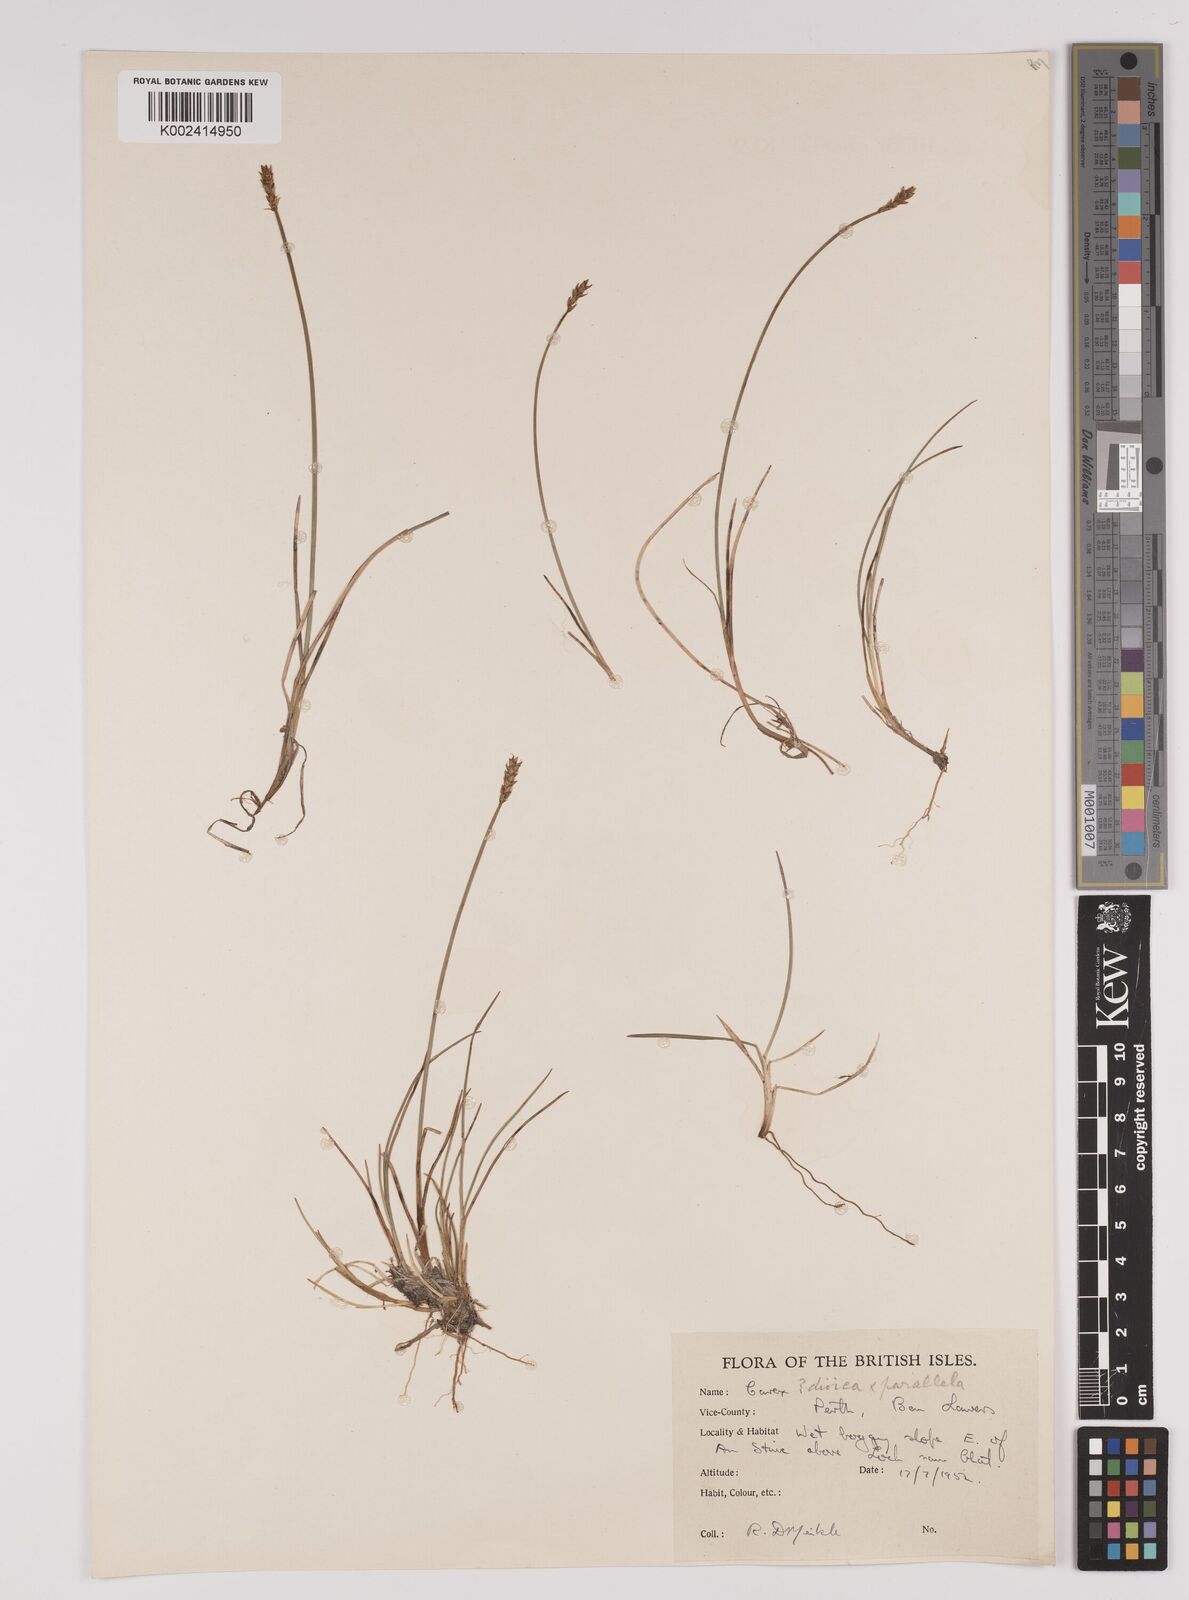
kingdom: Plantae
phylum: Tracheophyta
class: Liliopsida
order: Poales
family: Cyperaceae
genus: Carex
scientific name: Carex dioica
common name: Dioecious sedge
